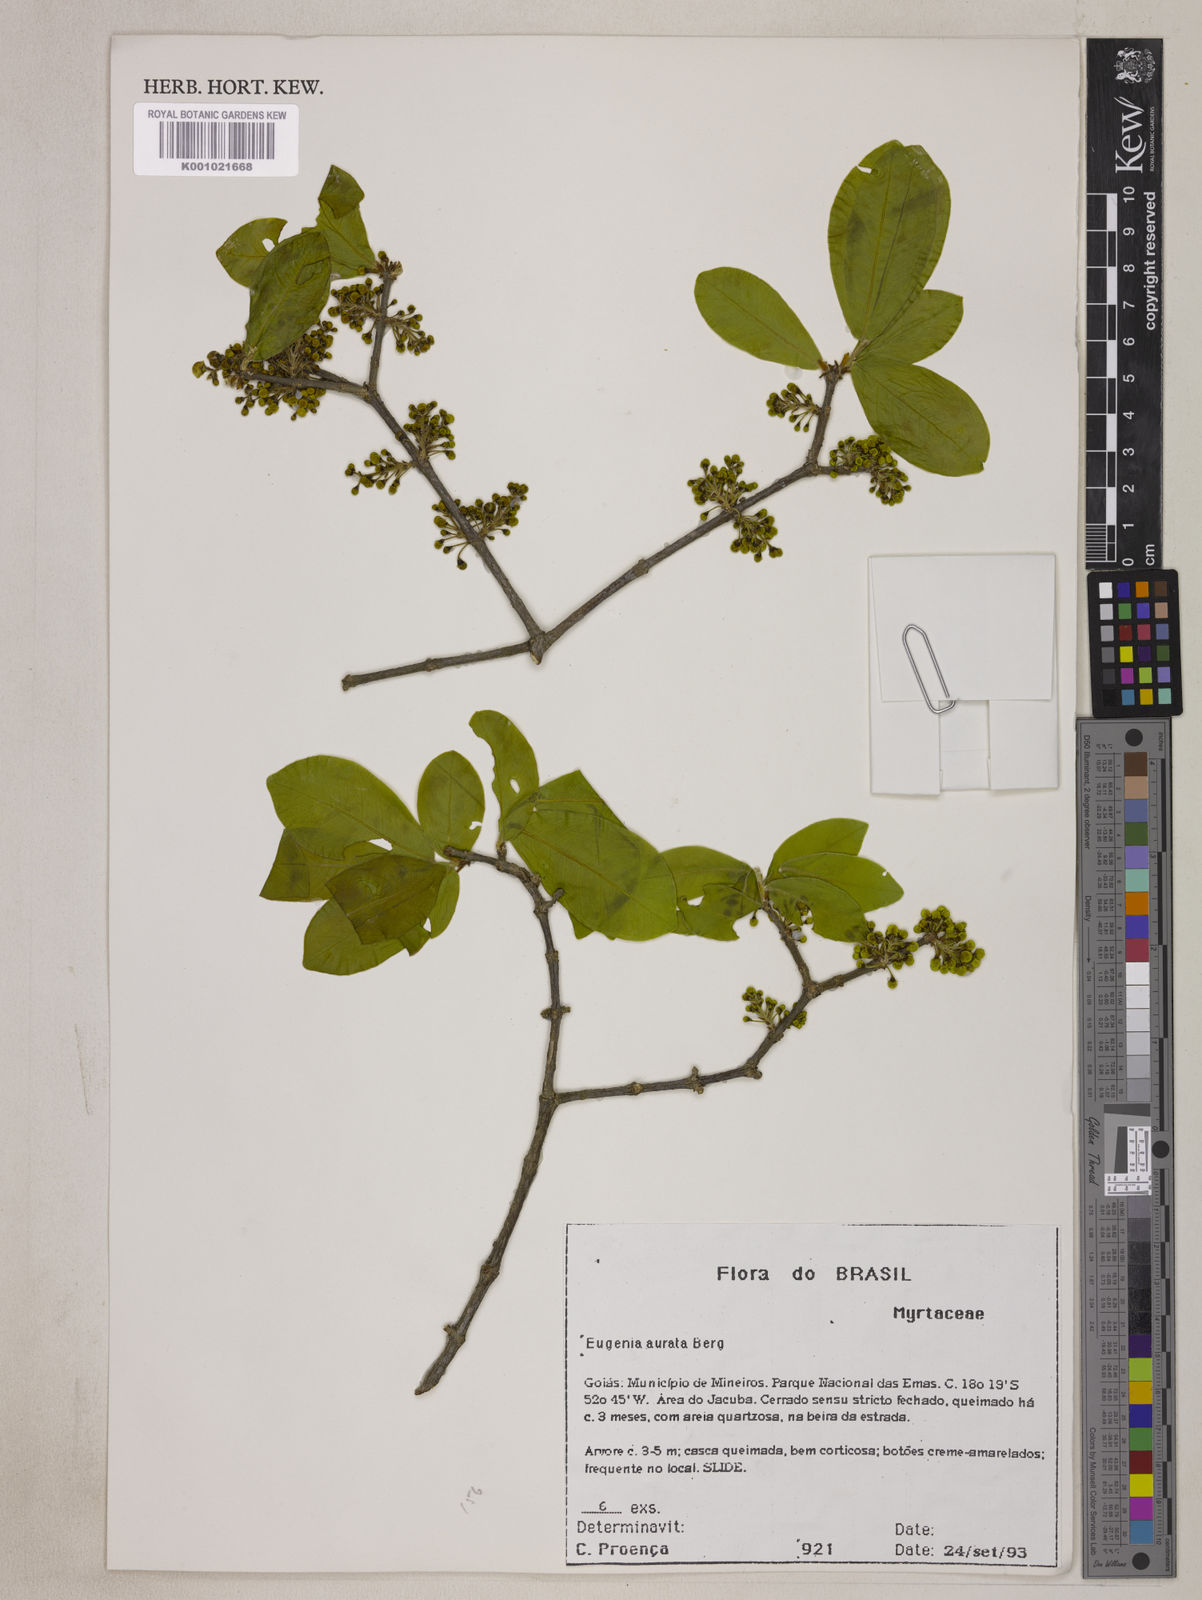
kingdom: Plantae
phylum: Tracheophyta
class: Magnoliopsida
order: Myrtales
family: Myrtaceae
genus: Eugenia
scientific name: Eugenia aurata
